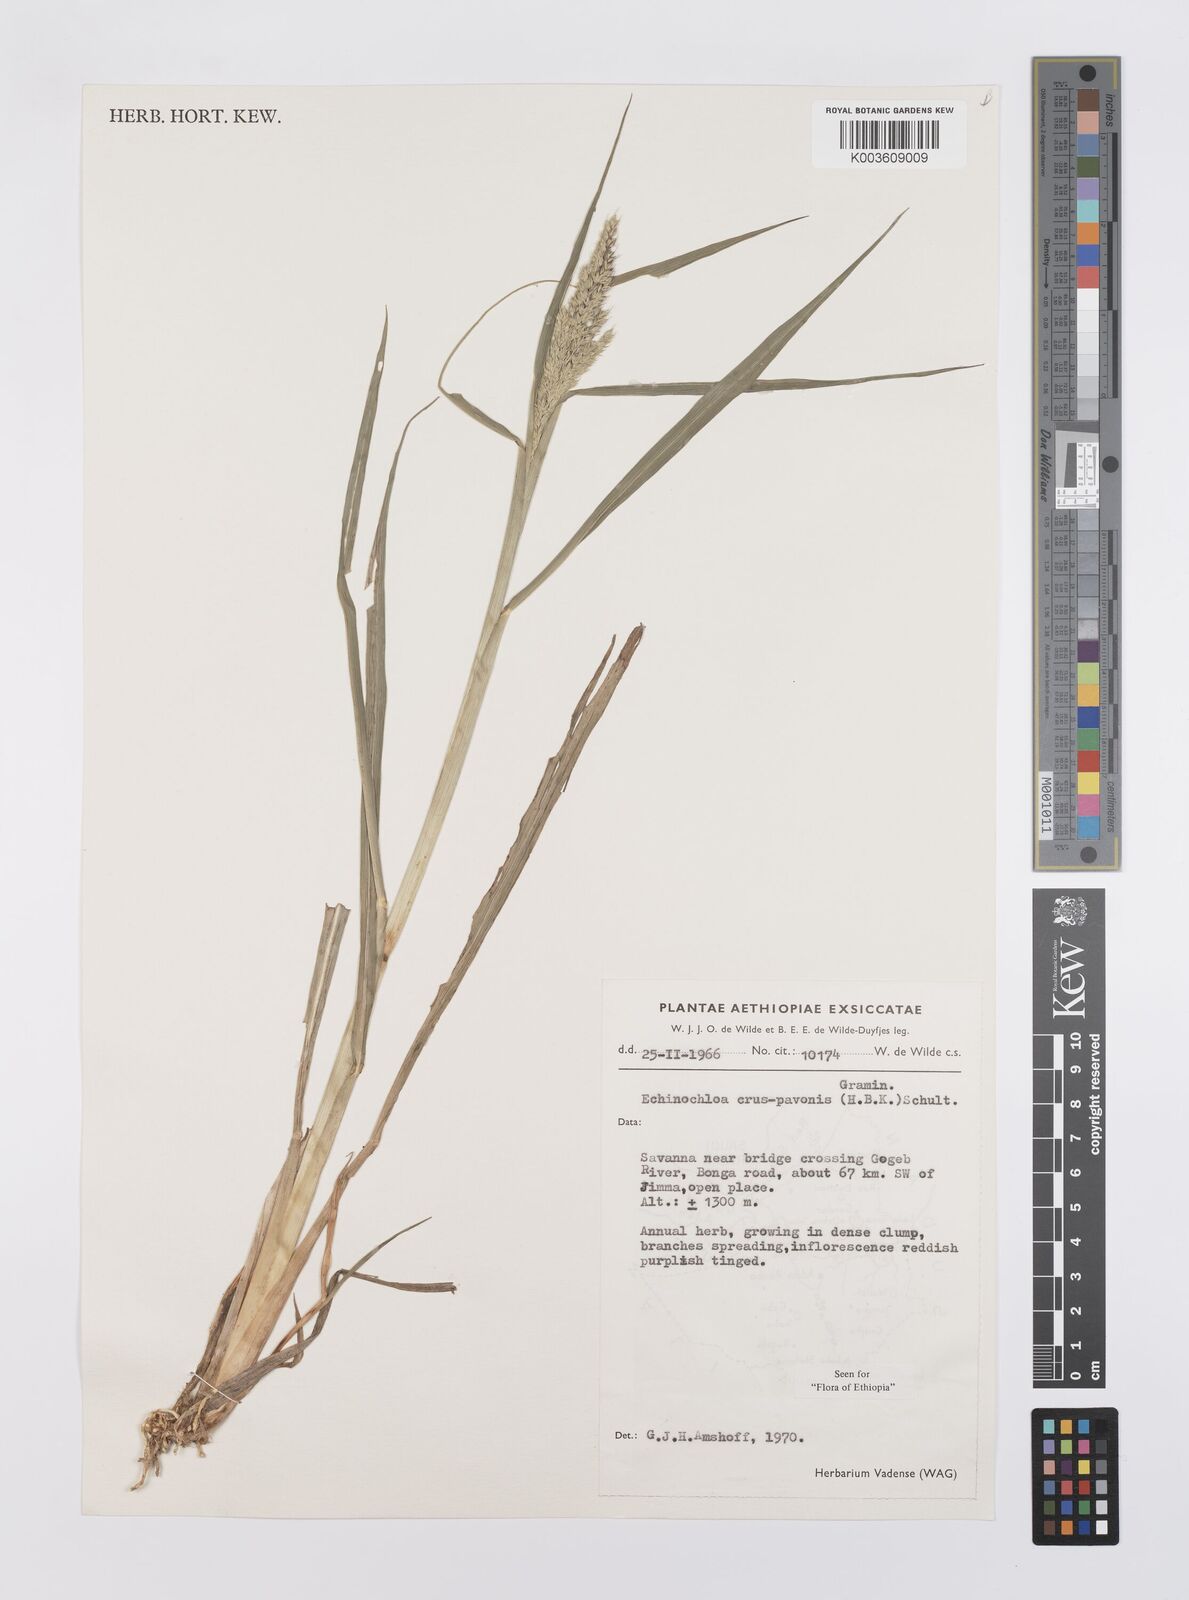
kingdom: Plantae
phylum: Tracheophyta
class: Liliopsida
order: Poales
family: Poaceae
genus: Echinochloa
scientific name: Echinochloa crus-pavonis
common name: Gulf cockspur grass
